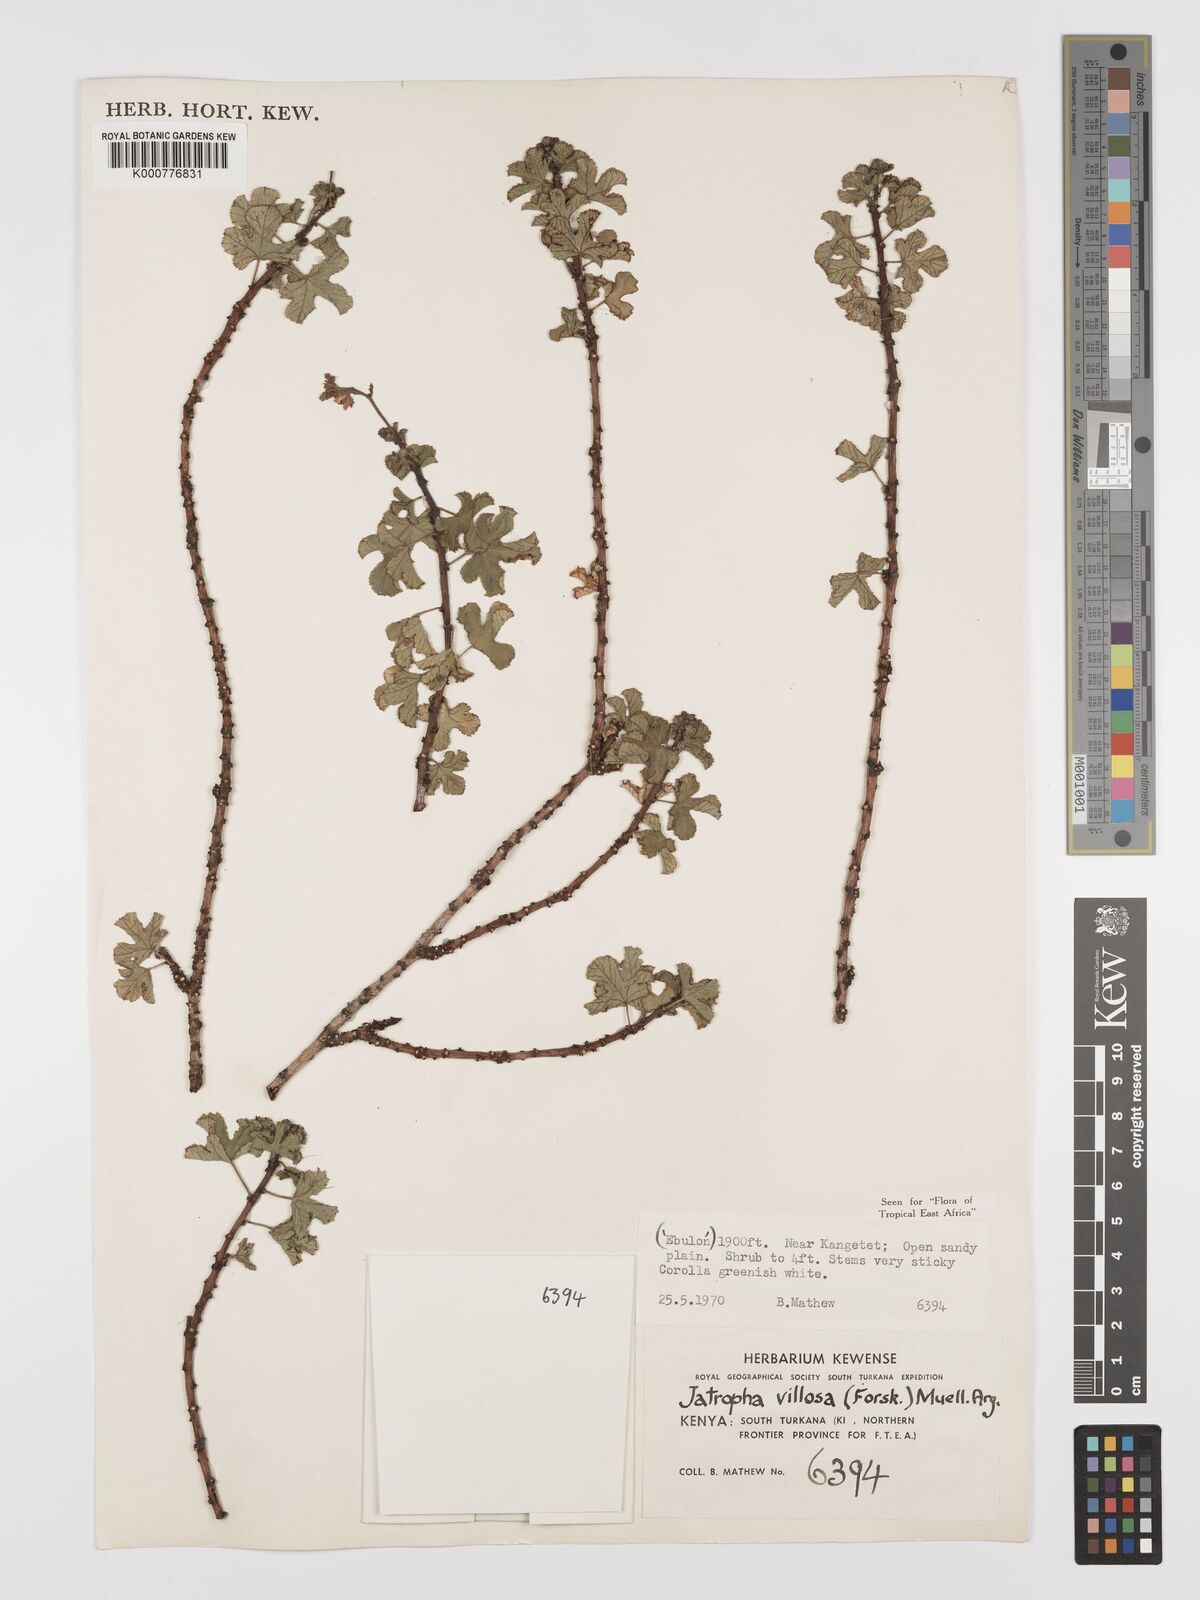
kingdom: Plantae
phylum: Tracheophyta
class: Magnoliopsida
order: Malpighiales
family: Euphorbiaceae
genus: Jatropha
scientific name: Jatropha pelargoniifolia
